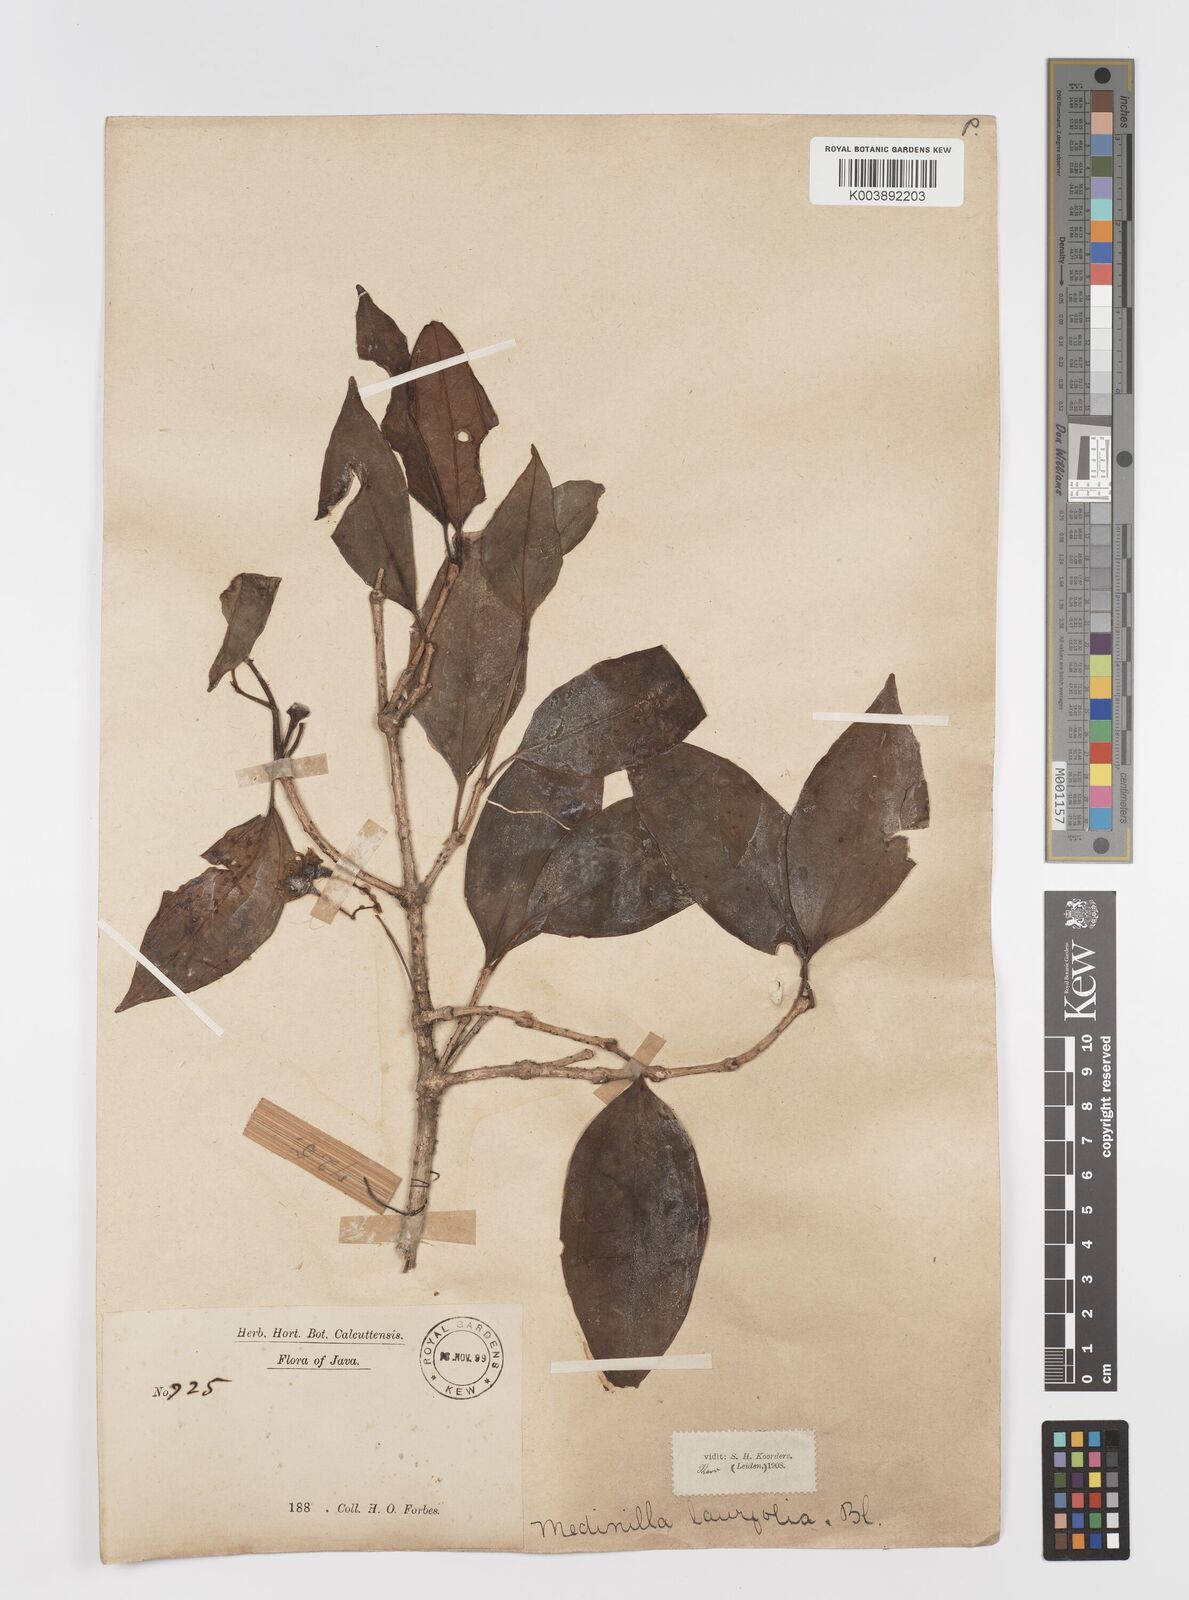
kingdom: Plantae
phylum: Tracheophyta
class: Magnoliopsida
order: Myrtales
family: Melastomataceae
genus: Medinilla
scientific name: Medinilla laurifolia
